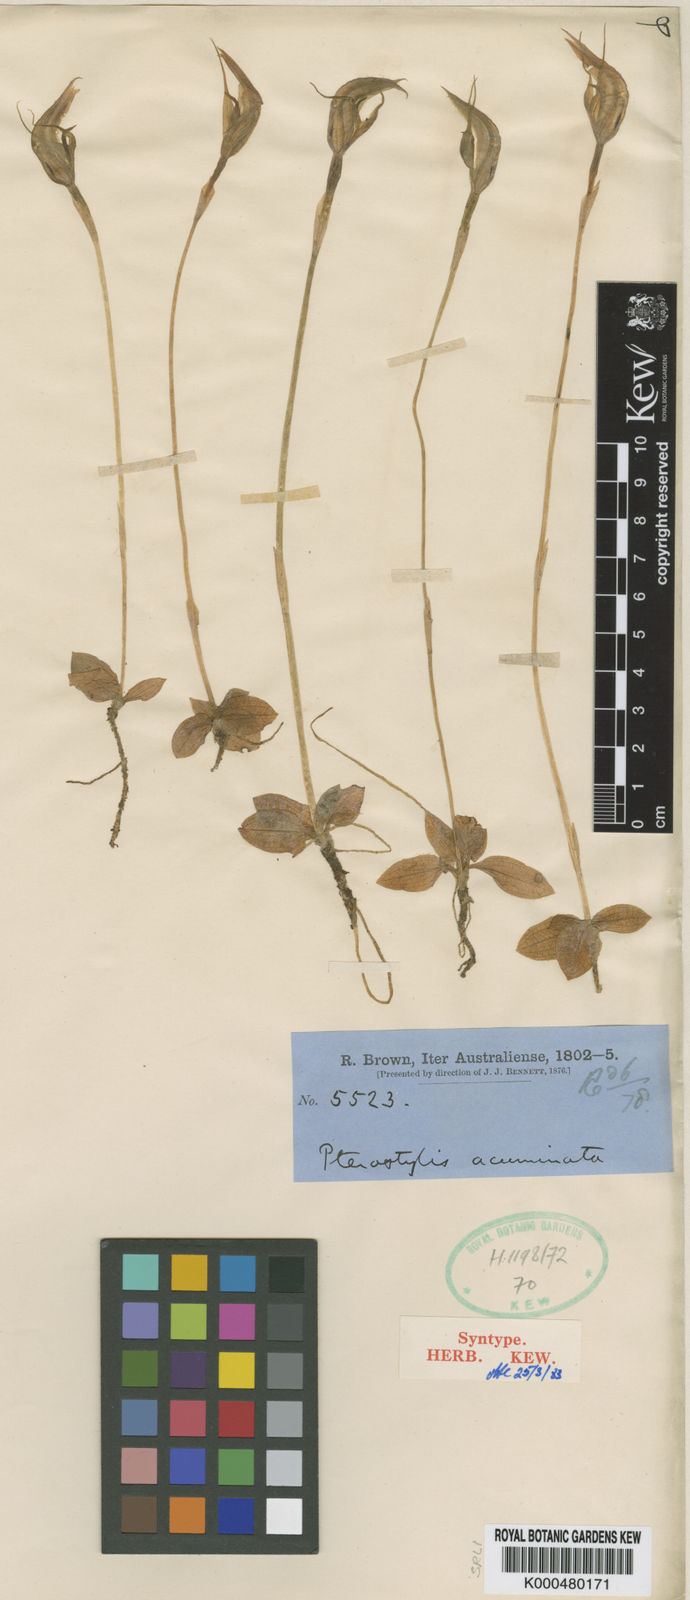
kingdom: Plantae
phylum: Tracheophyta
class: Liliopsida
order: Asparagales
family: Orchidaceae
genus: Pterostylis
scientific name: Pterostylis concinna
